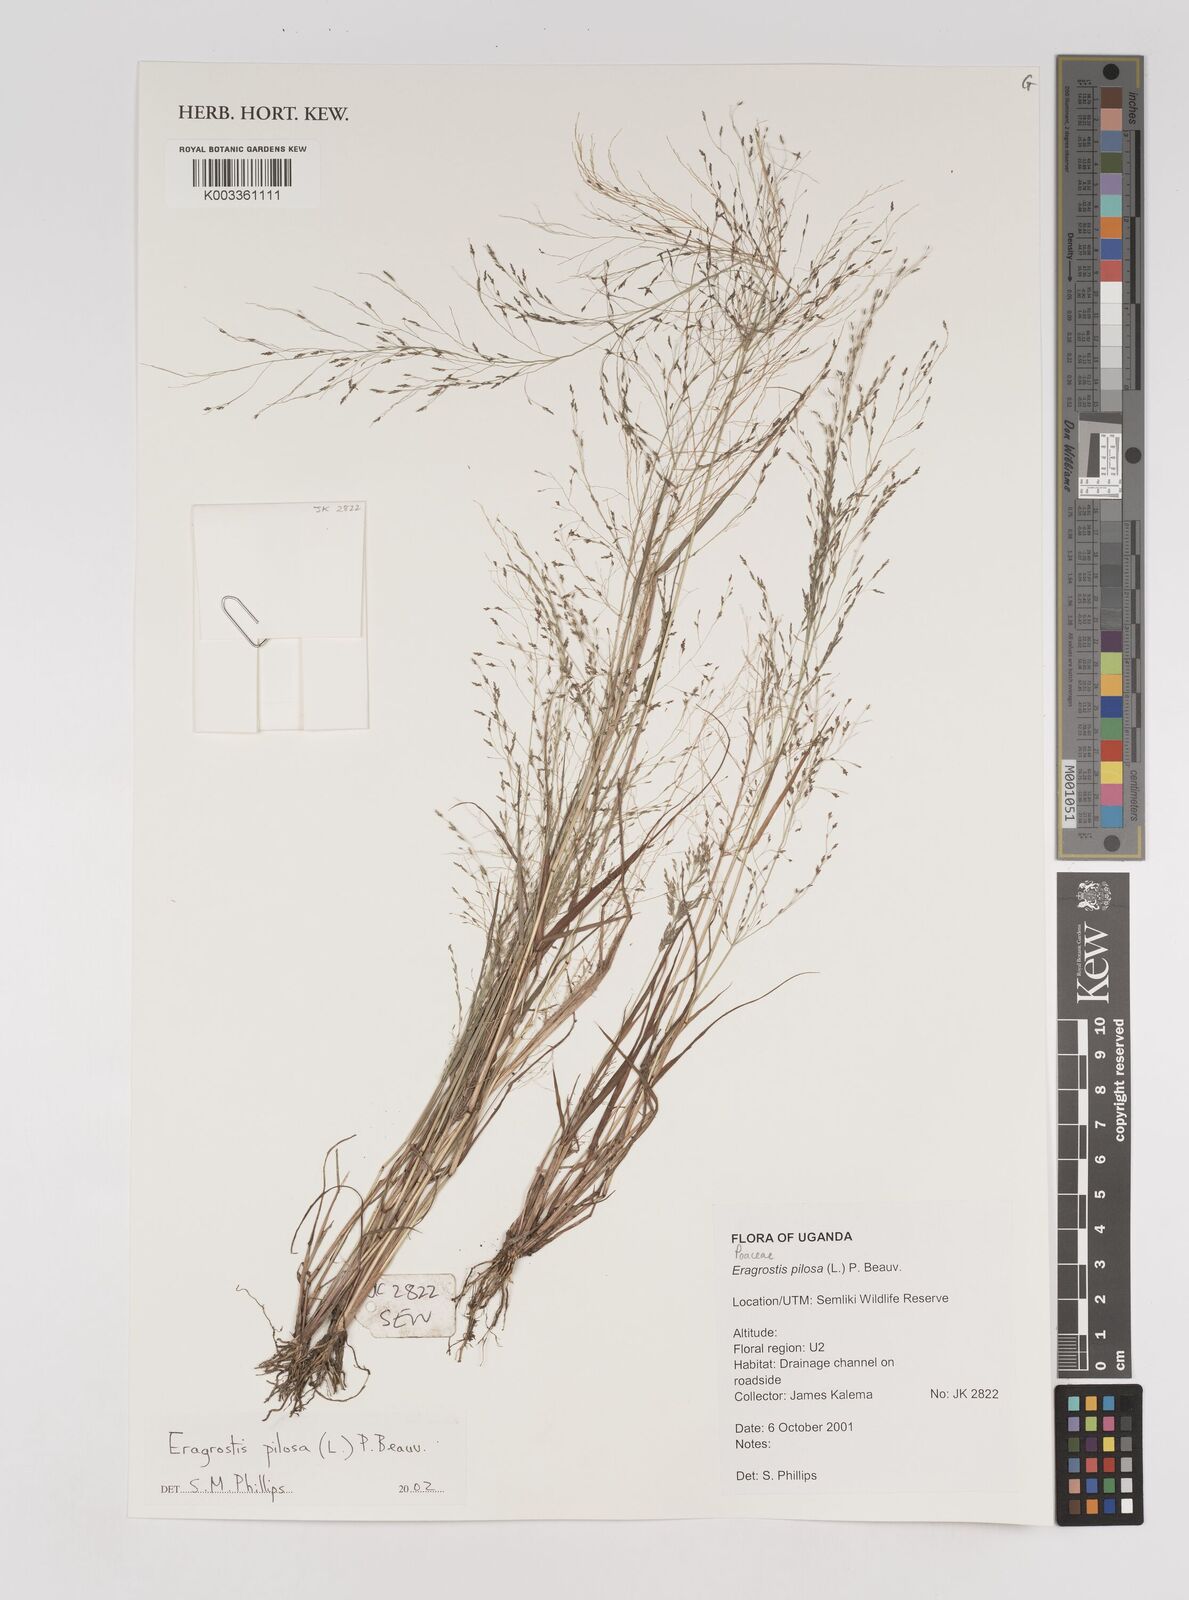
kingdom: Plantae
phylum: Tracheophyta
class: Liliopsida
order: Poales
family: Poaceae
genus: Eragrostis
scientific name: Eragrostis pilosa
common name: Indian lovegrass
